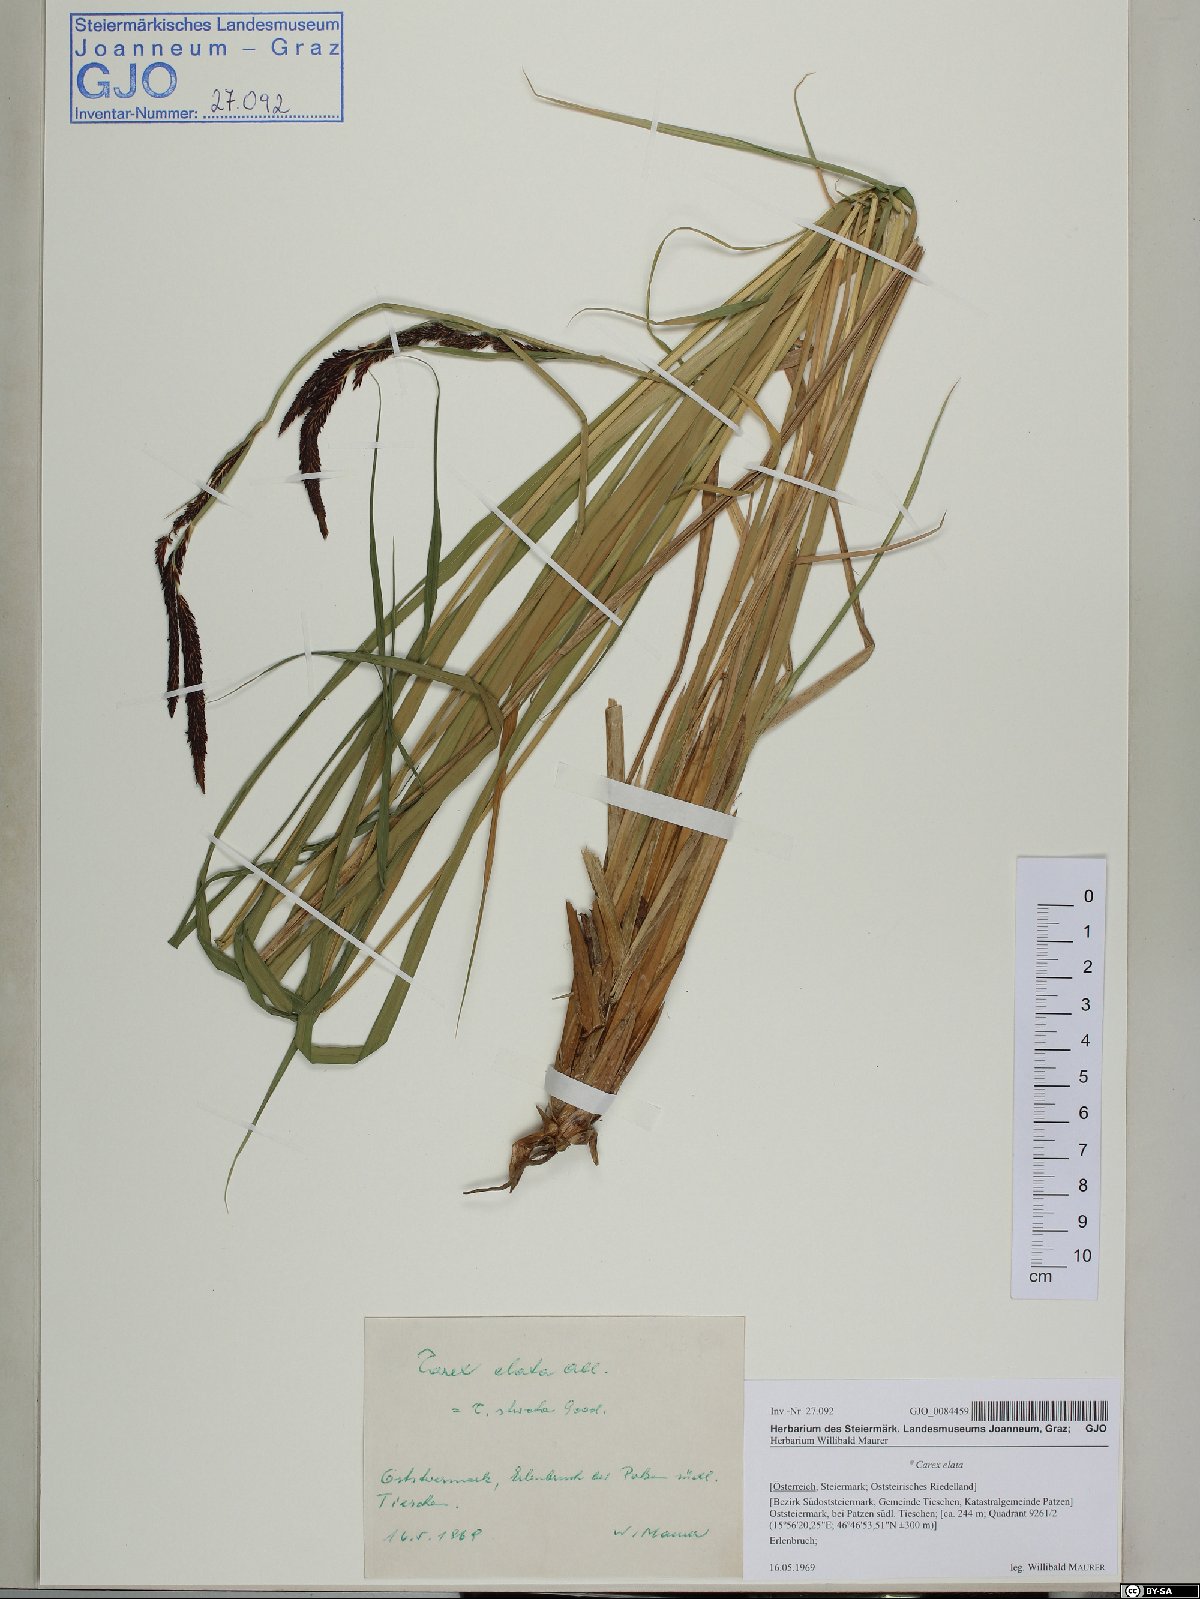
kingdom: Plantae
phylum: Tracheophyta
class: Liliopsida
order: Poales
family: Cyperaceae
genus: Carex
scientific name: Carex elata
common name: Tufted sedge
